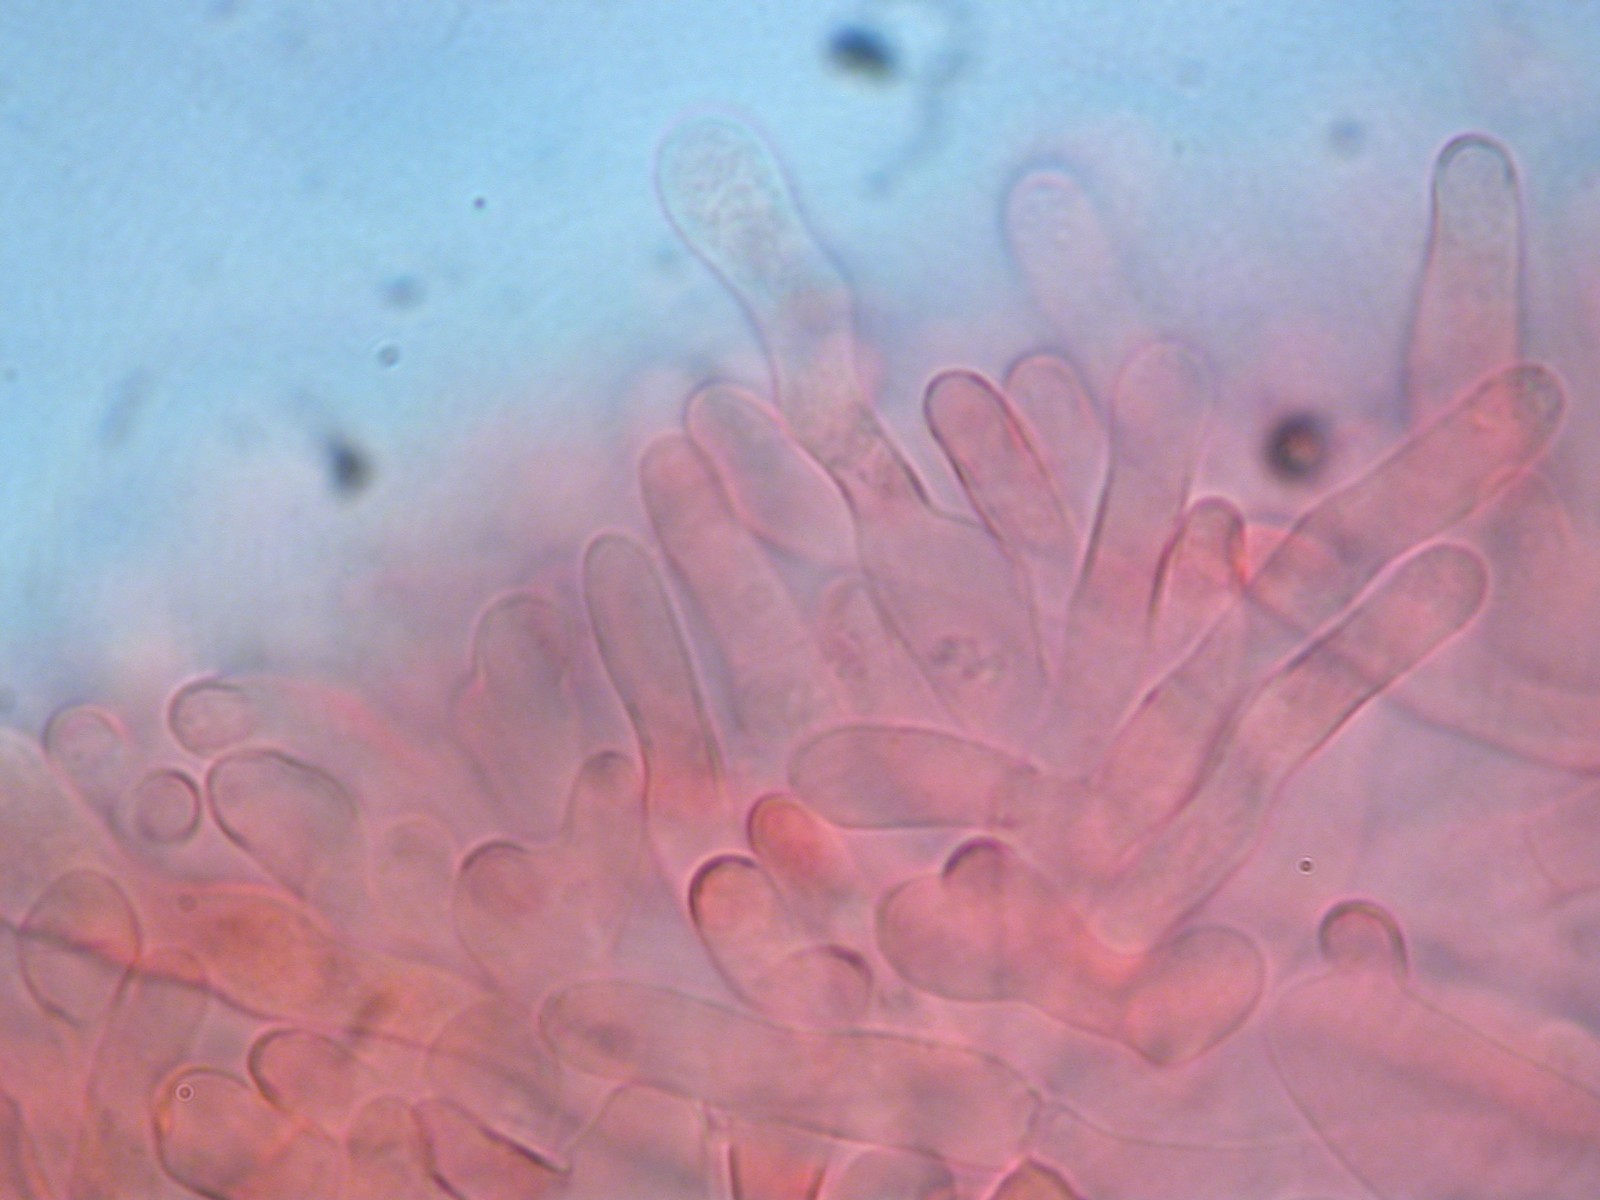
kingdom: Fungi
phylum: Basidiomycota
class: Agaricomycetes
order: Agaricales
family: Entolomataceae
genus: Entoloma
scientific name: Entoloma
